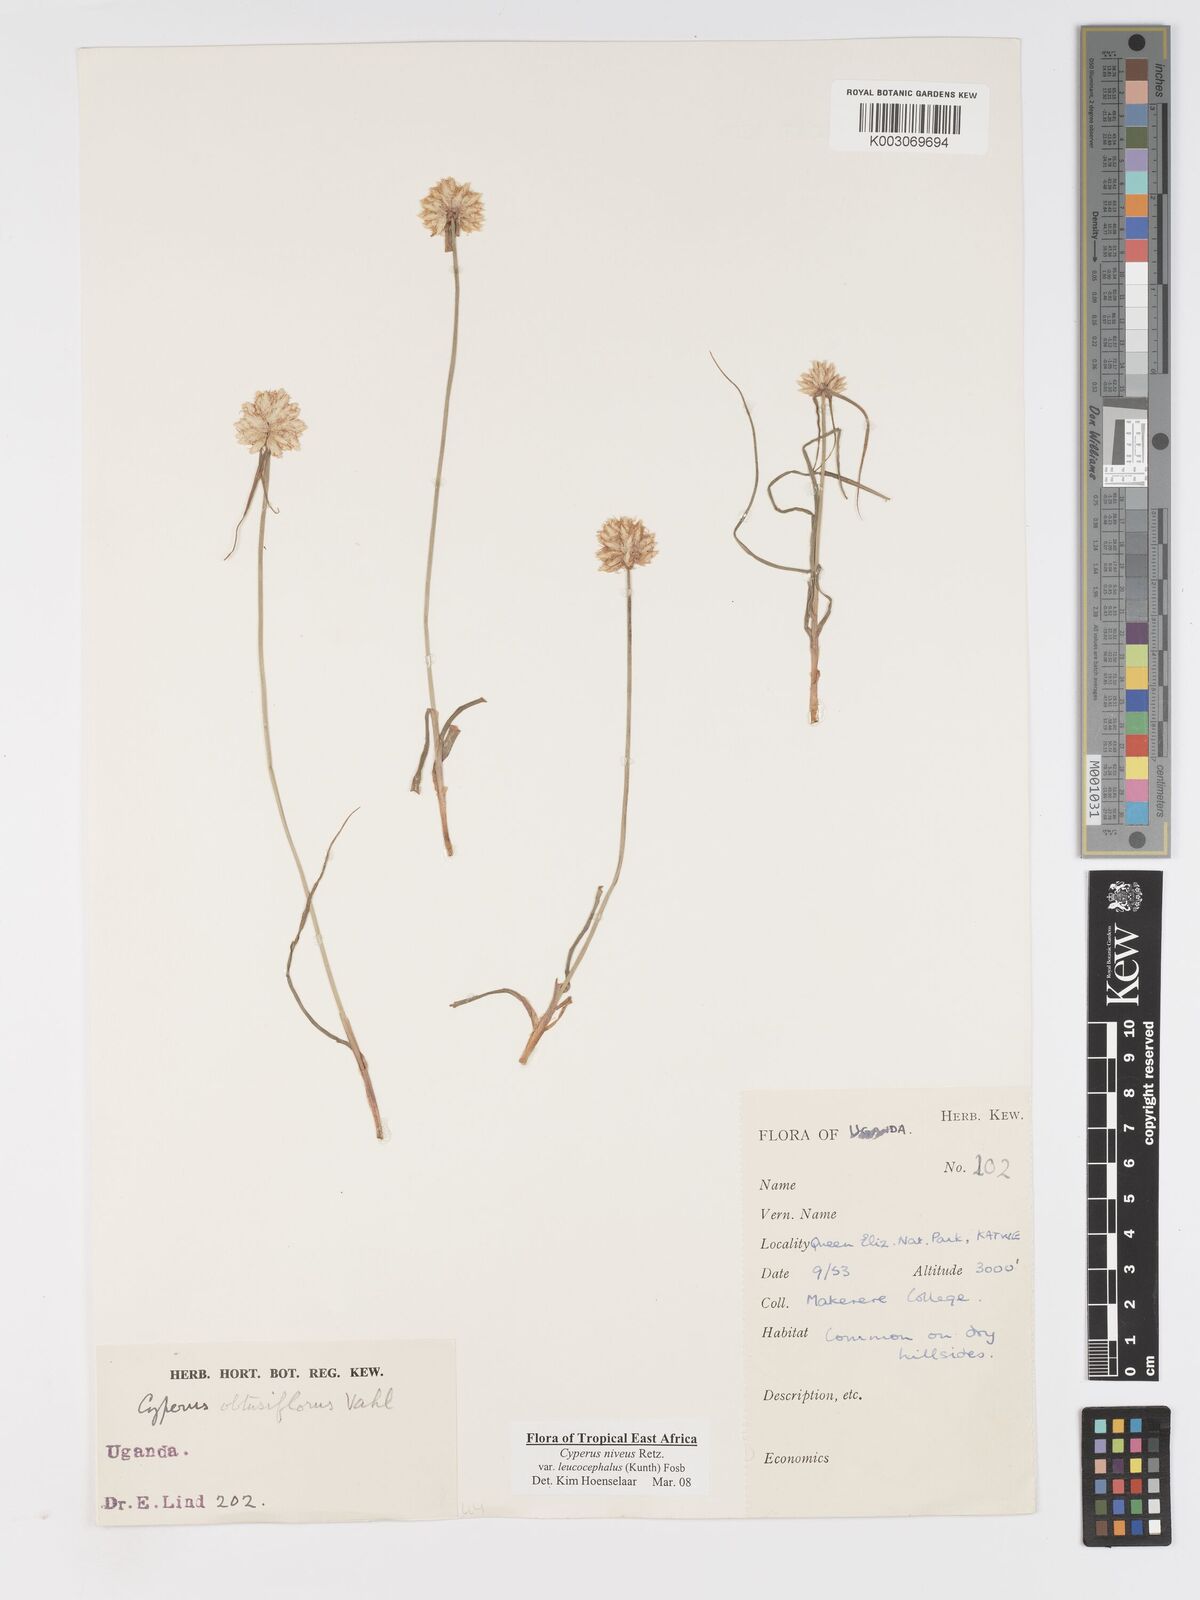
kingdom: Plantae
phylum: Tracheophyta
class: Liliopsida
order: Poales
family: Cyperaceae
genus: Cyperus
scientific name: Cyperus niveus
